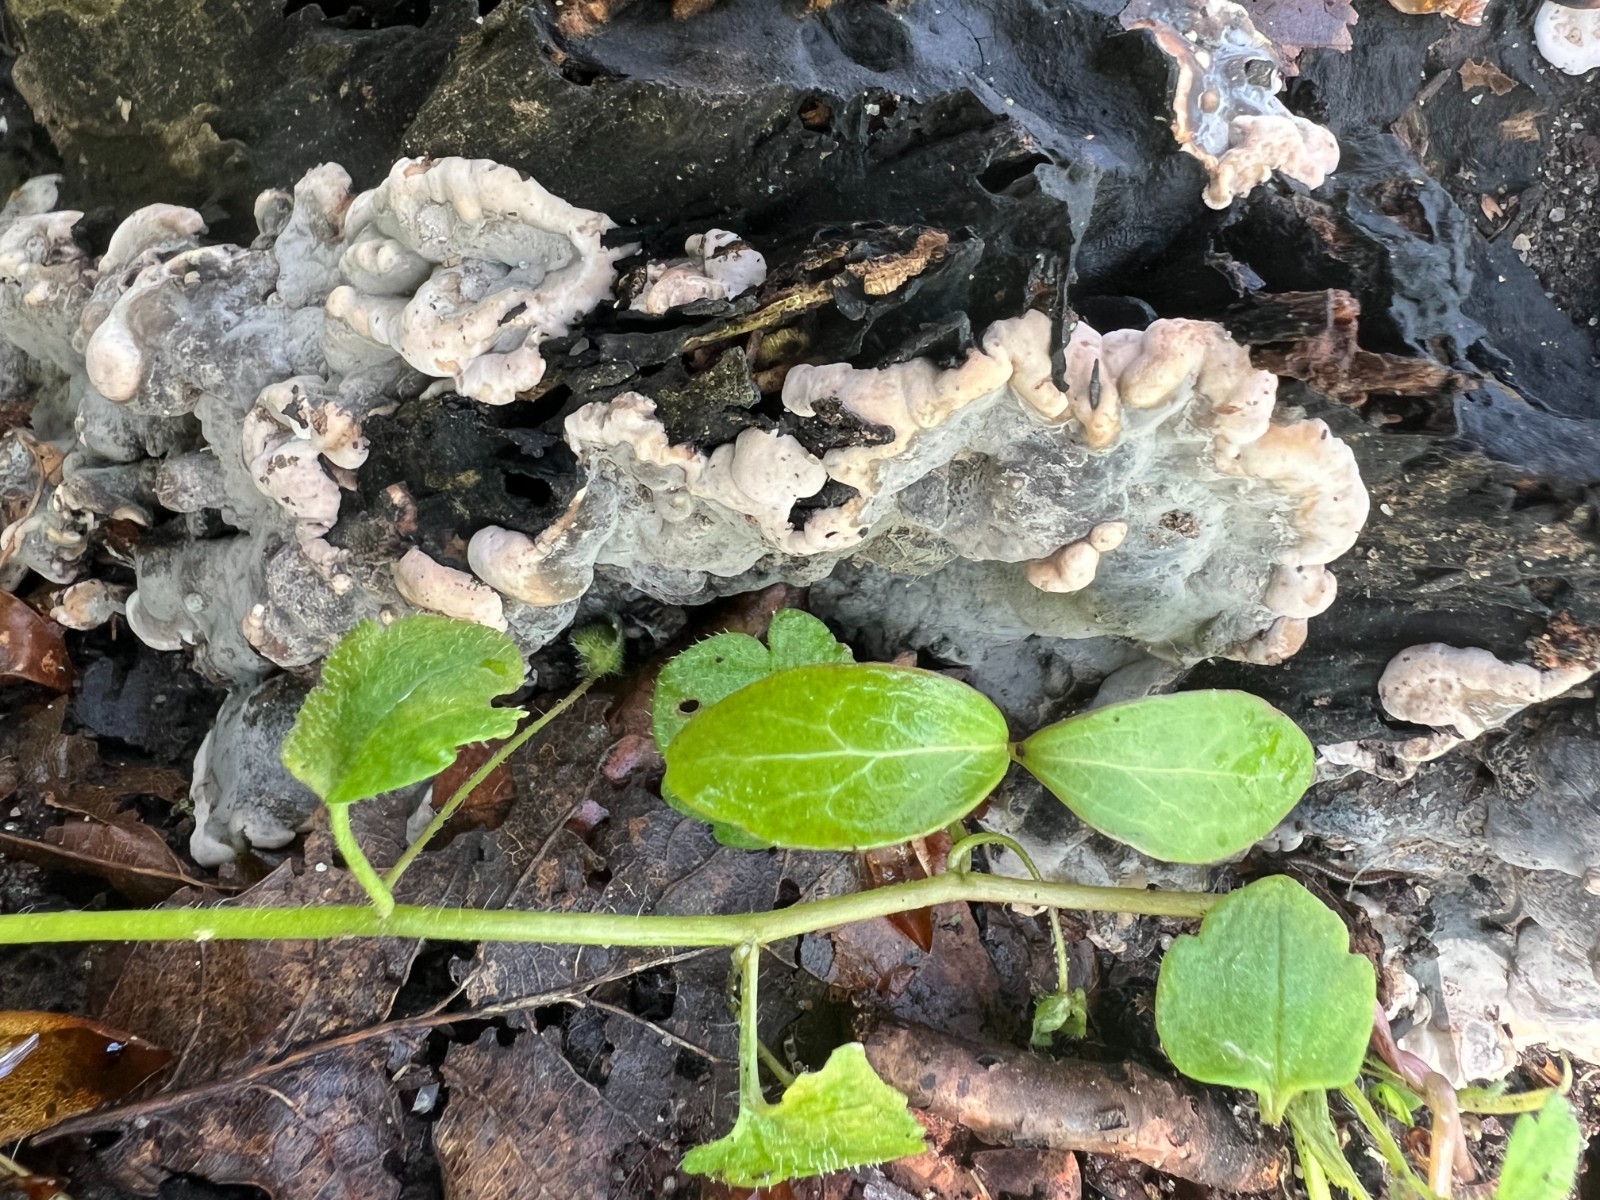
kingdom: Fungi
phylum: Ascomycota
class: Sordariomycetes
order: Xylariales
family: Xylariaceae
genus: Kretzschmaria
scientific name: Kretzschmaria deusta
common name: stor kulsvamp
